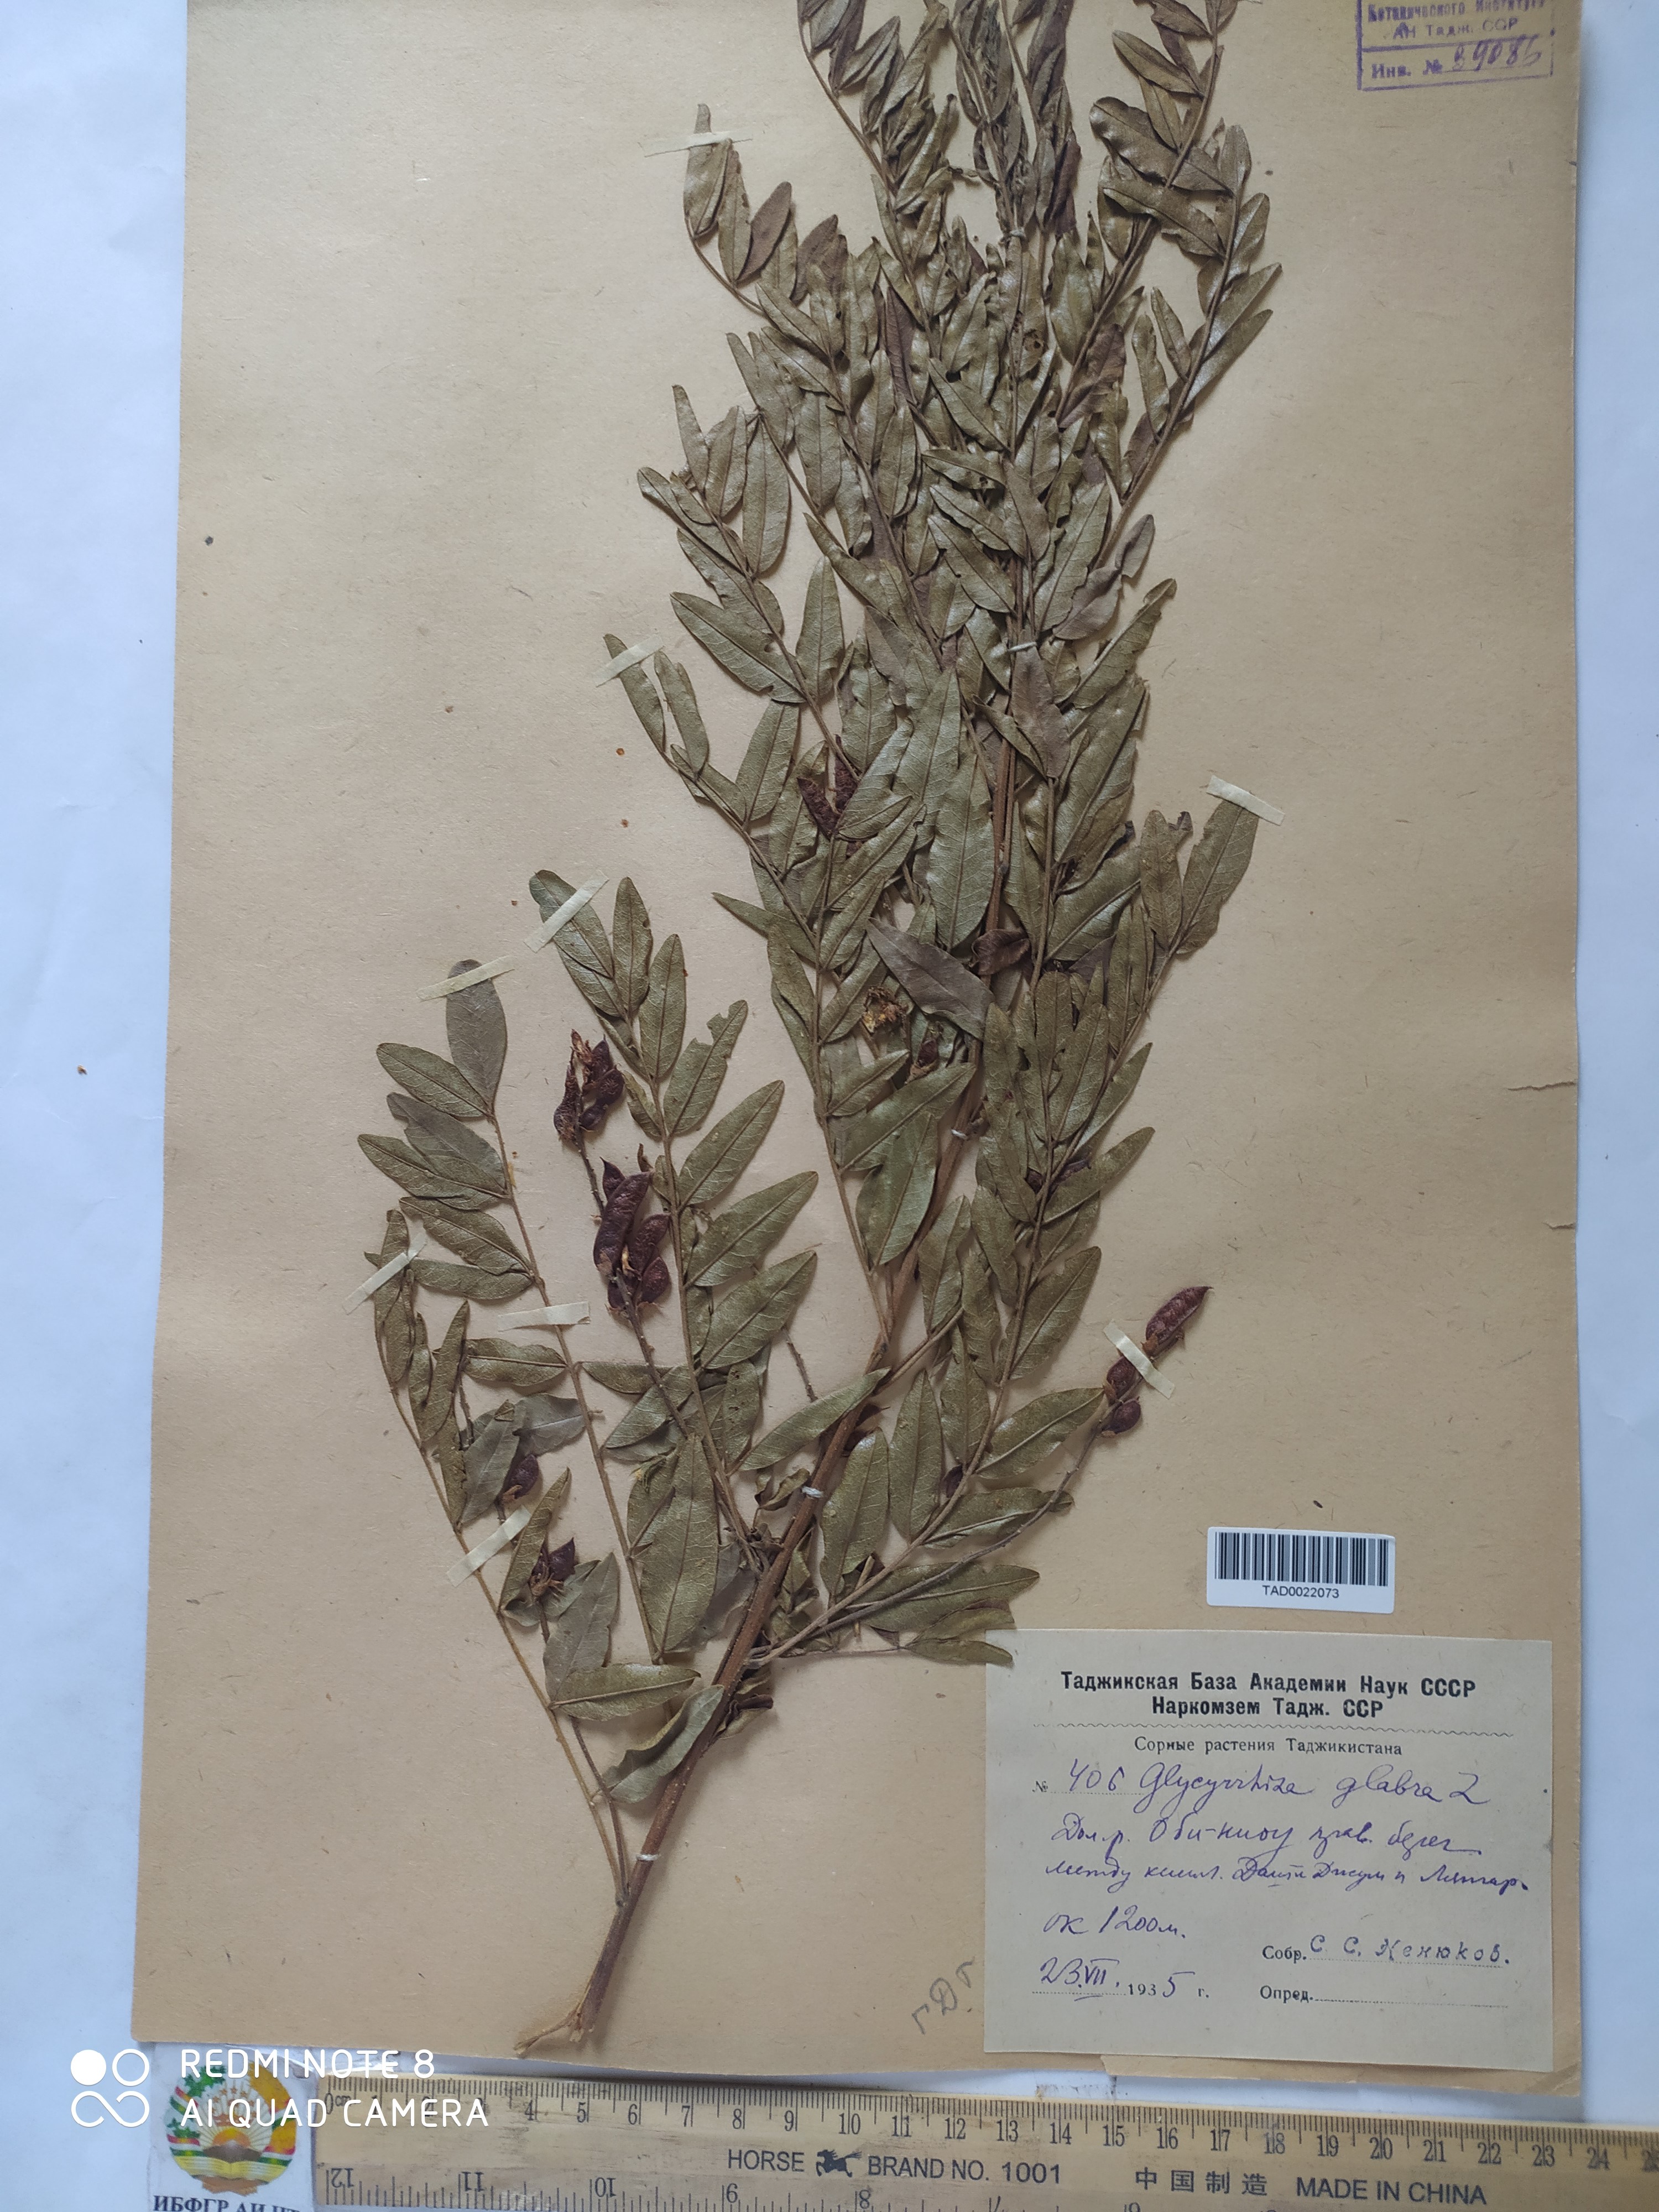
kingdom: Plantae
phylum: Tracheophyta
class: Magnoliopsida
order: Fabales
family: Fabaceae
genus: Glycyrrhiza
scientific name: Glycyrrhiza glabra
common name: Liquorice
